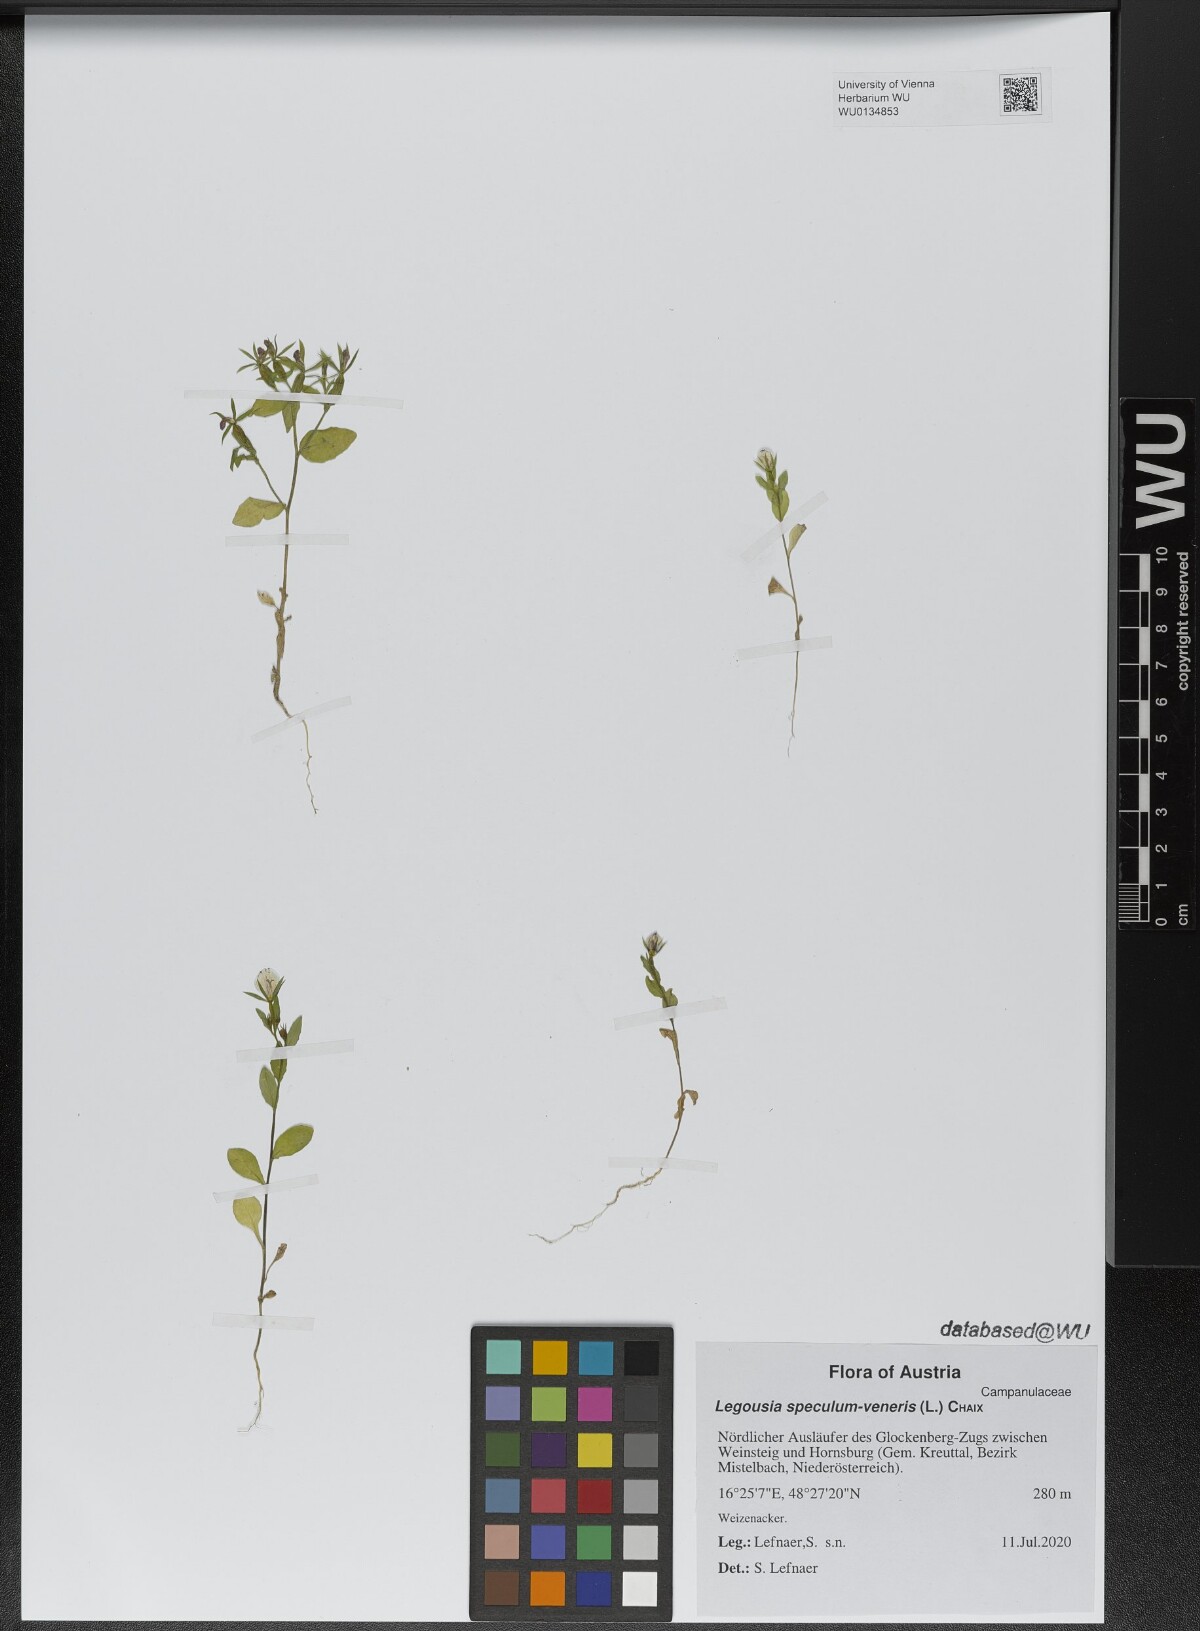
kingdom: Plantae
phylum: Tracheophyta
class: Magnoliopsida
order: Asterales
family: Campanulaceae
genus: Legousia
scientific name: Legousia speculum-veneris
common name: Large venus's-looking-glass
